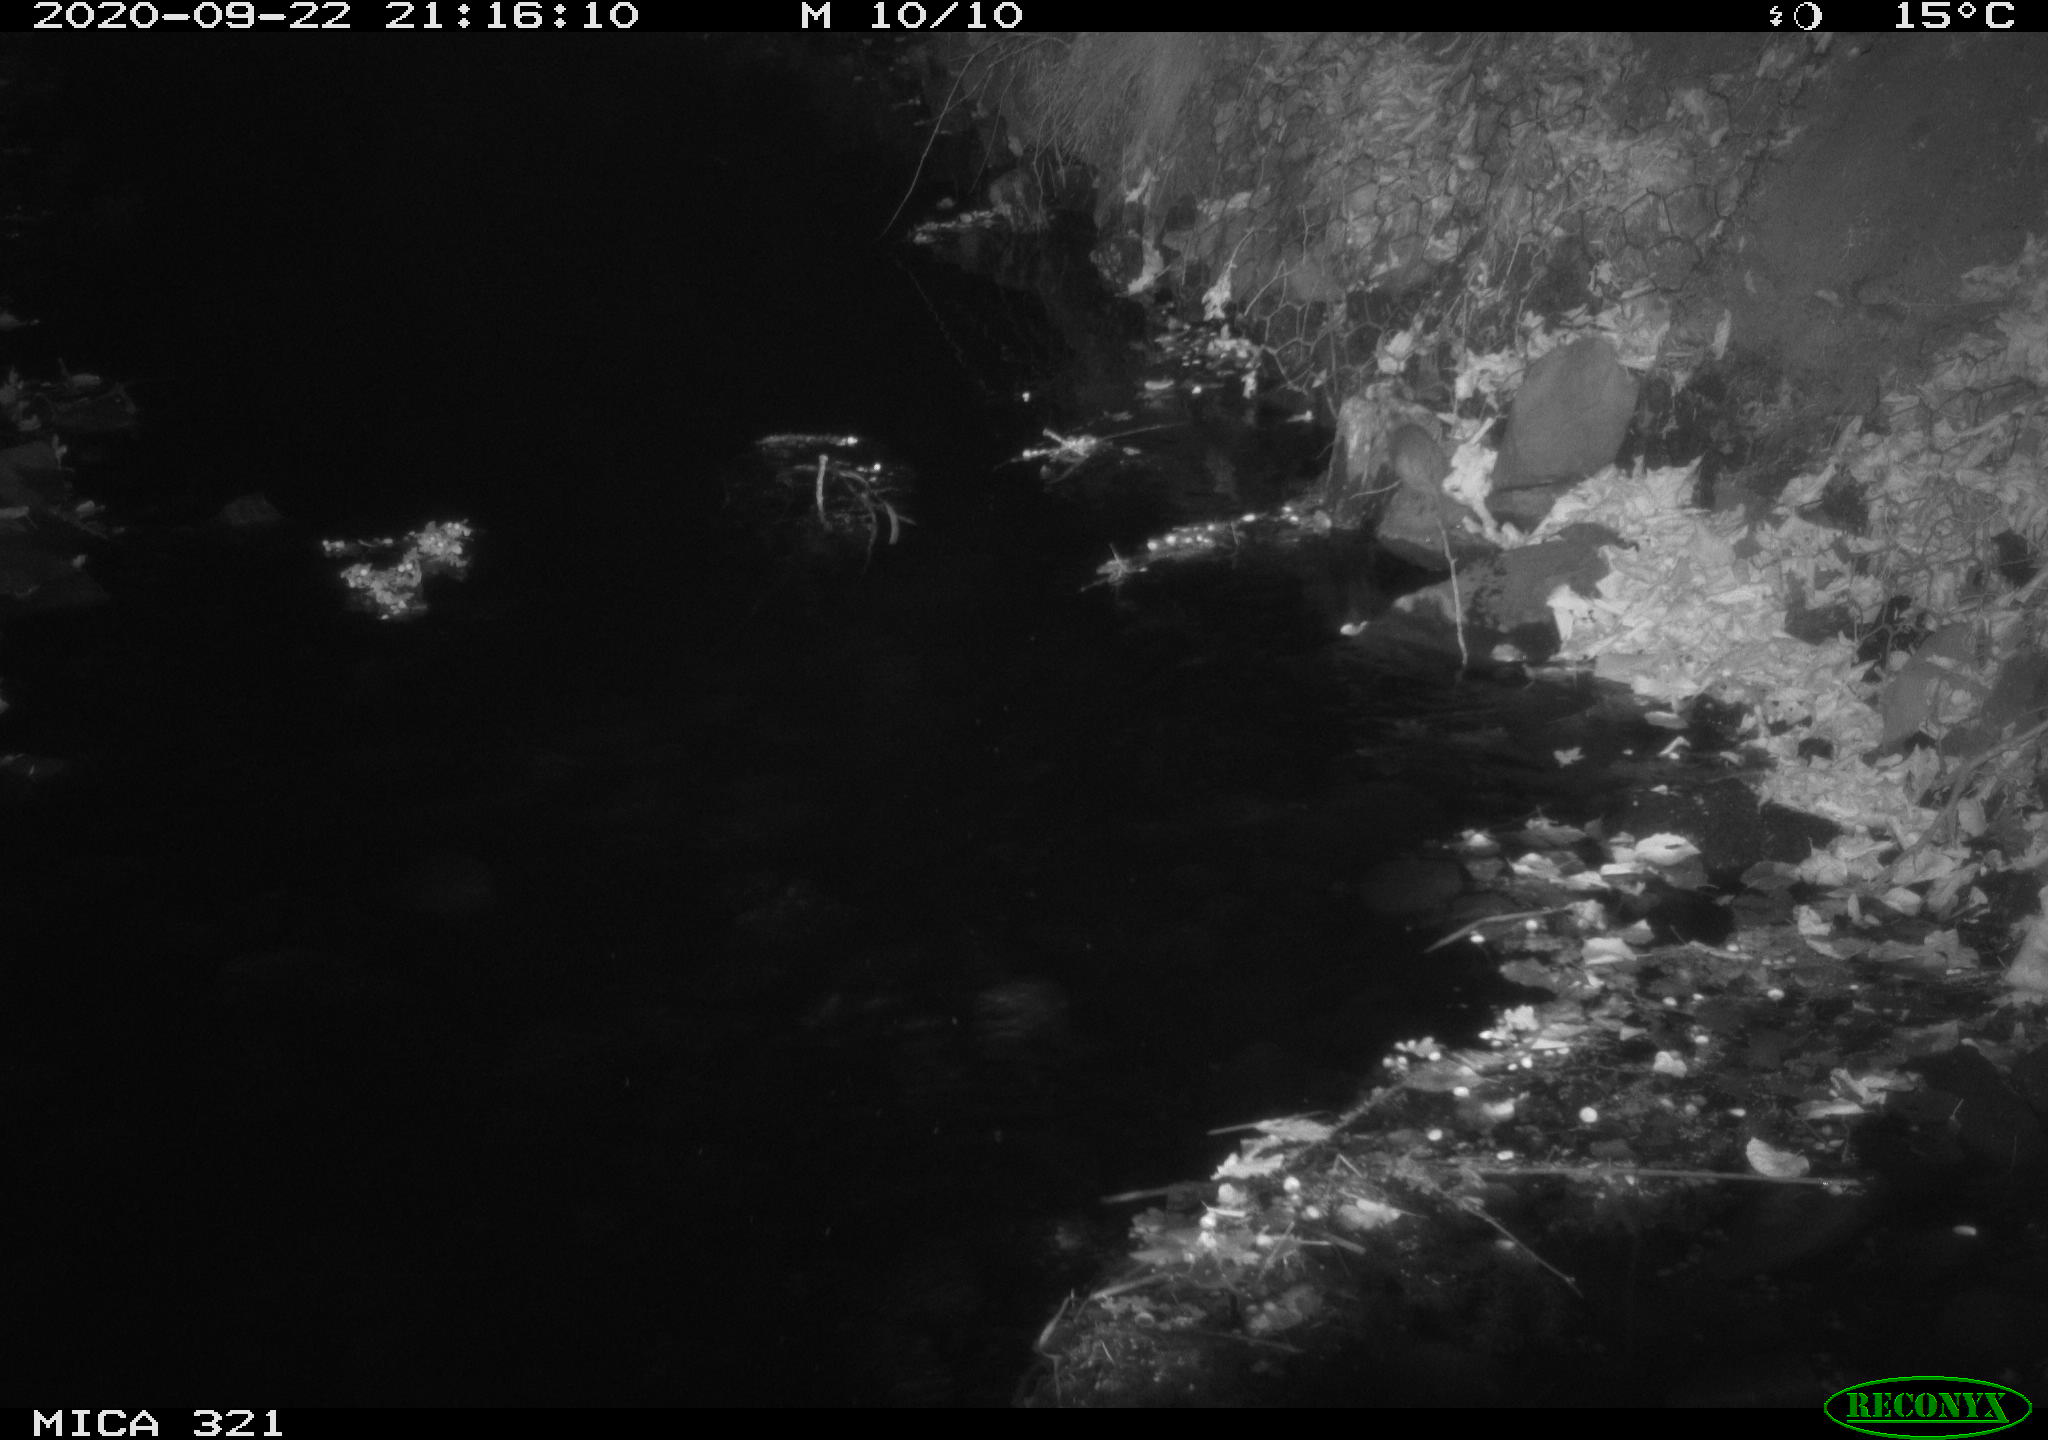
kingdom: Animalia
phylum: Chordata
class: Mammalia
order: Rodentia
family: Muridae
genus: Rattus
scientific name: Rattus norvegicus
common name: Brown rat
